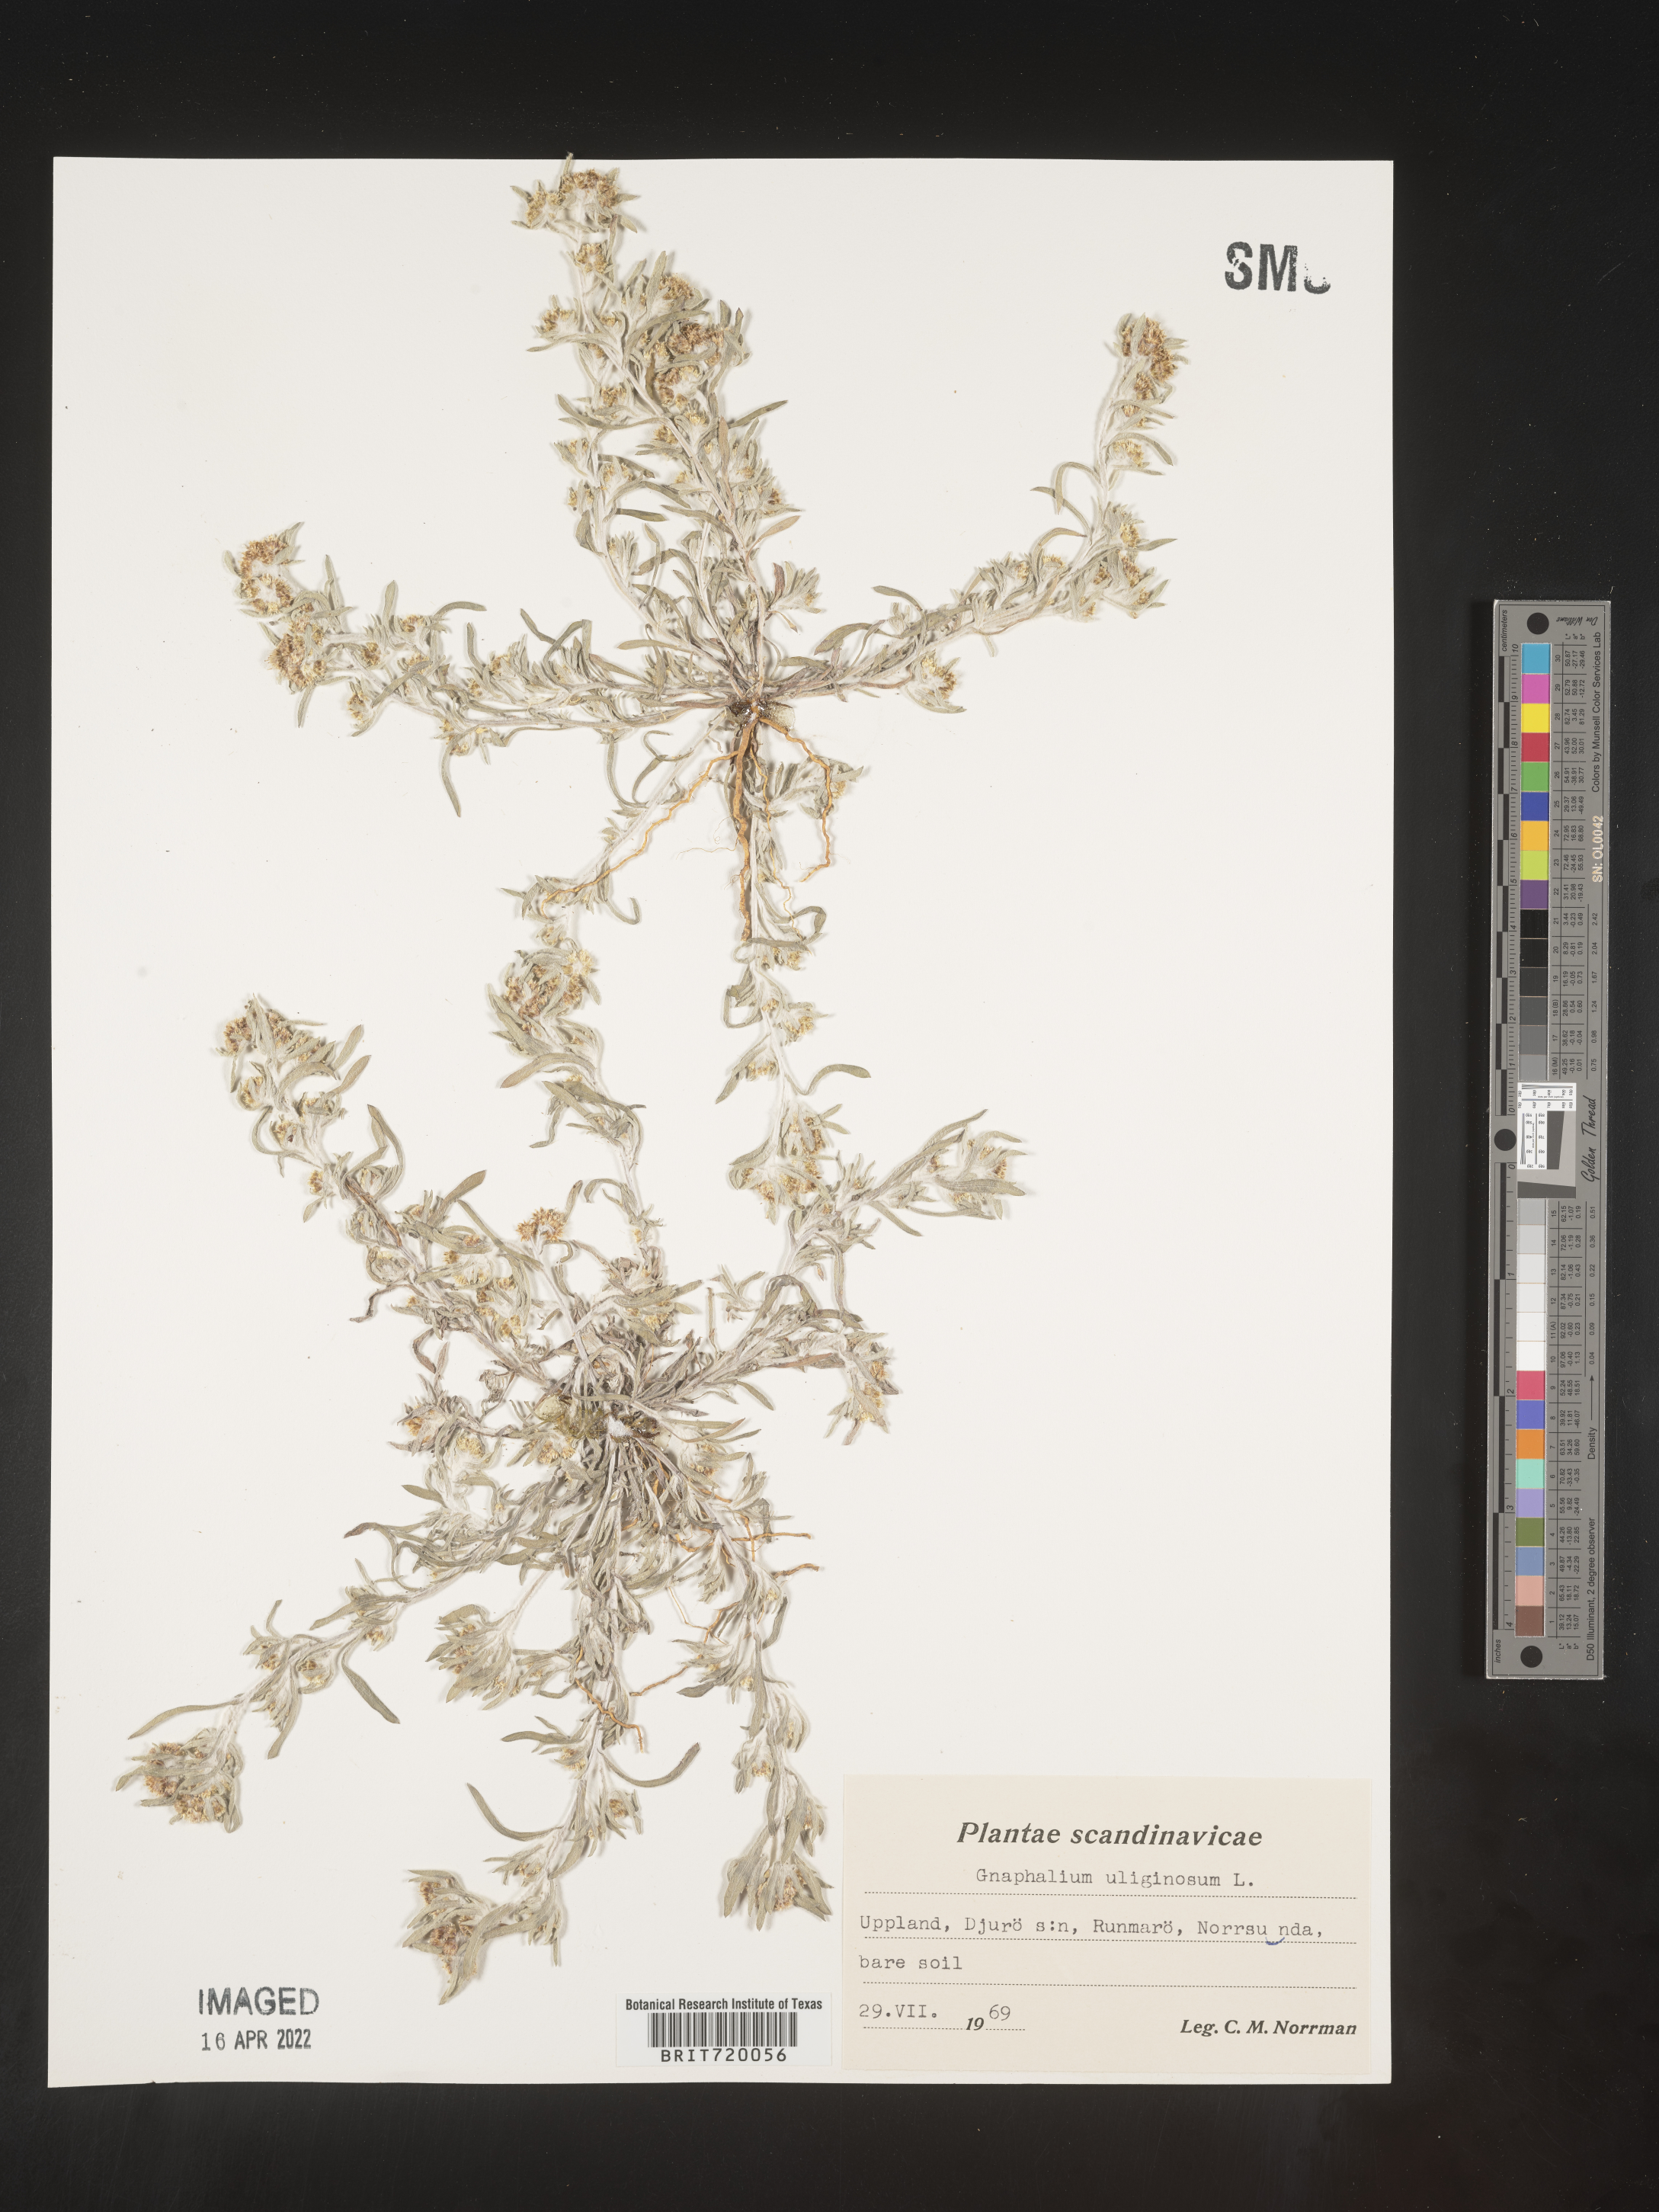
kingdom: Plantae
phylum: Tracheophyta
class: Magnoliopsida
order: Asterales
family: Asteraceae
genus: Gnaphalium
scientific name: Gnaphalium
